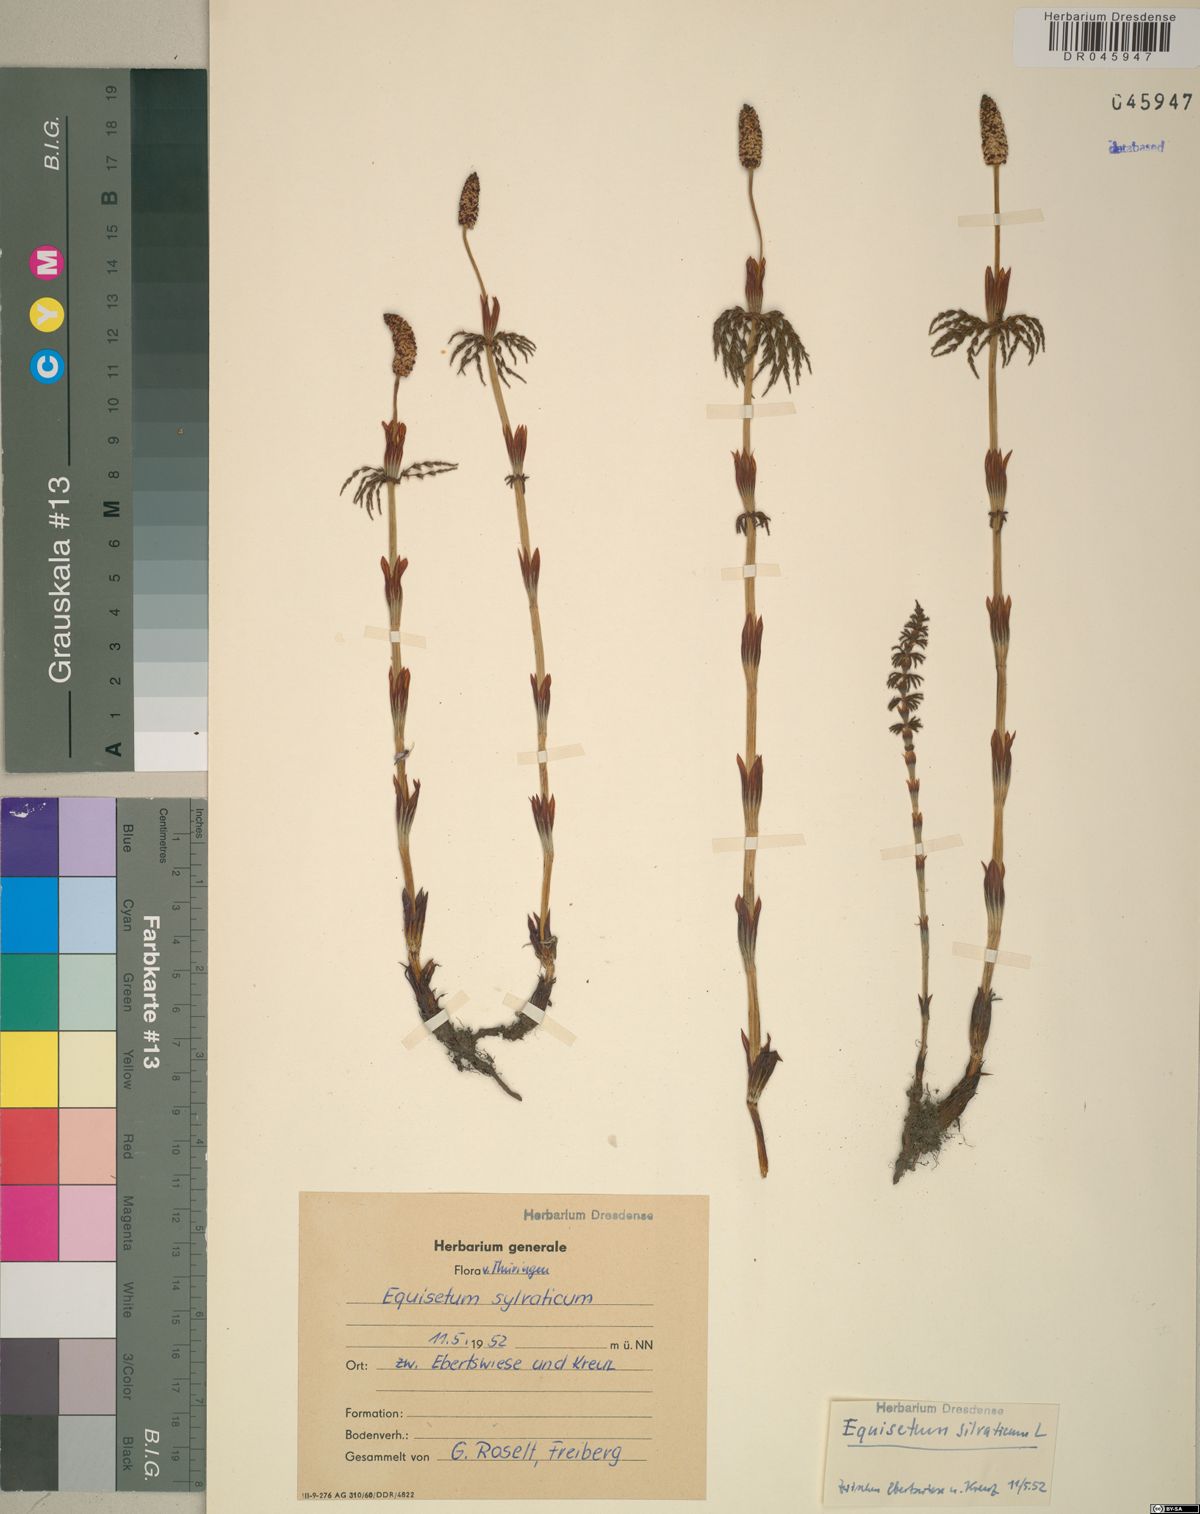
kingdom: Plantae
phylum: Tracheophyta
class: Polypodiopsida
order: Equisetales
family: Equisetaceae
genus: Equisetum
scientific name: Equisetum sylvaticum
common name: Wood horsetail
